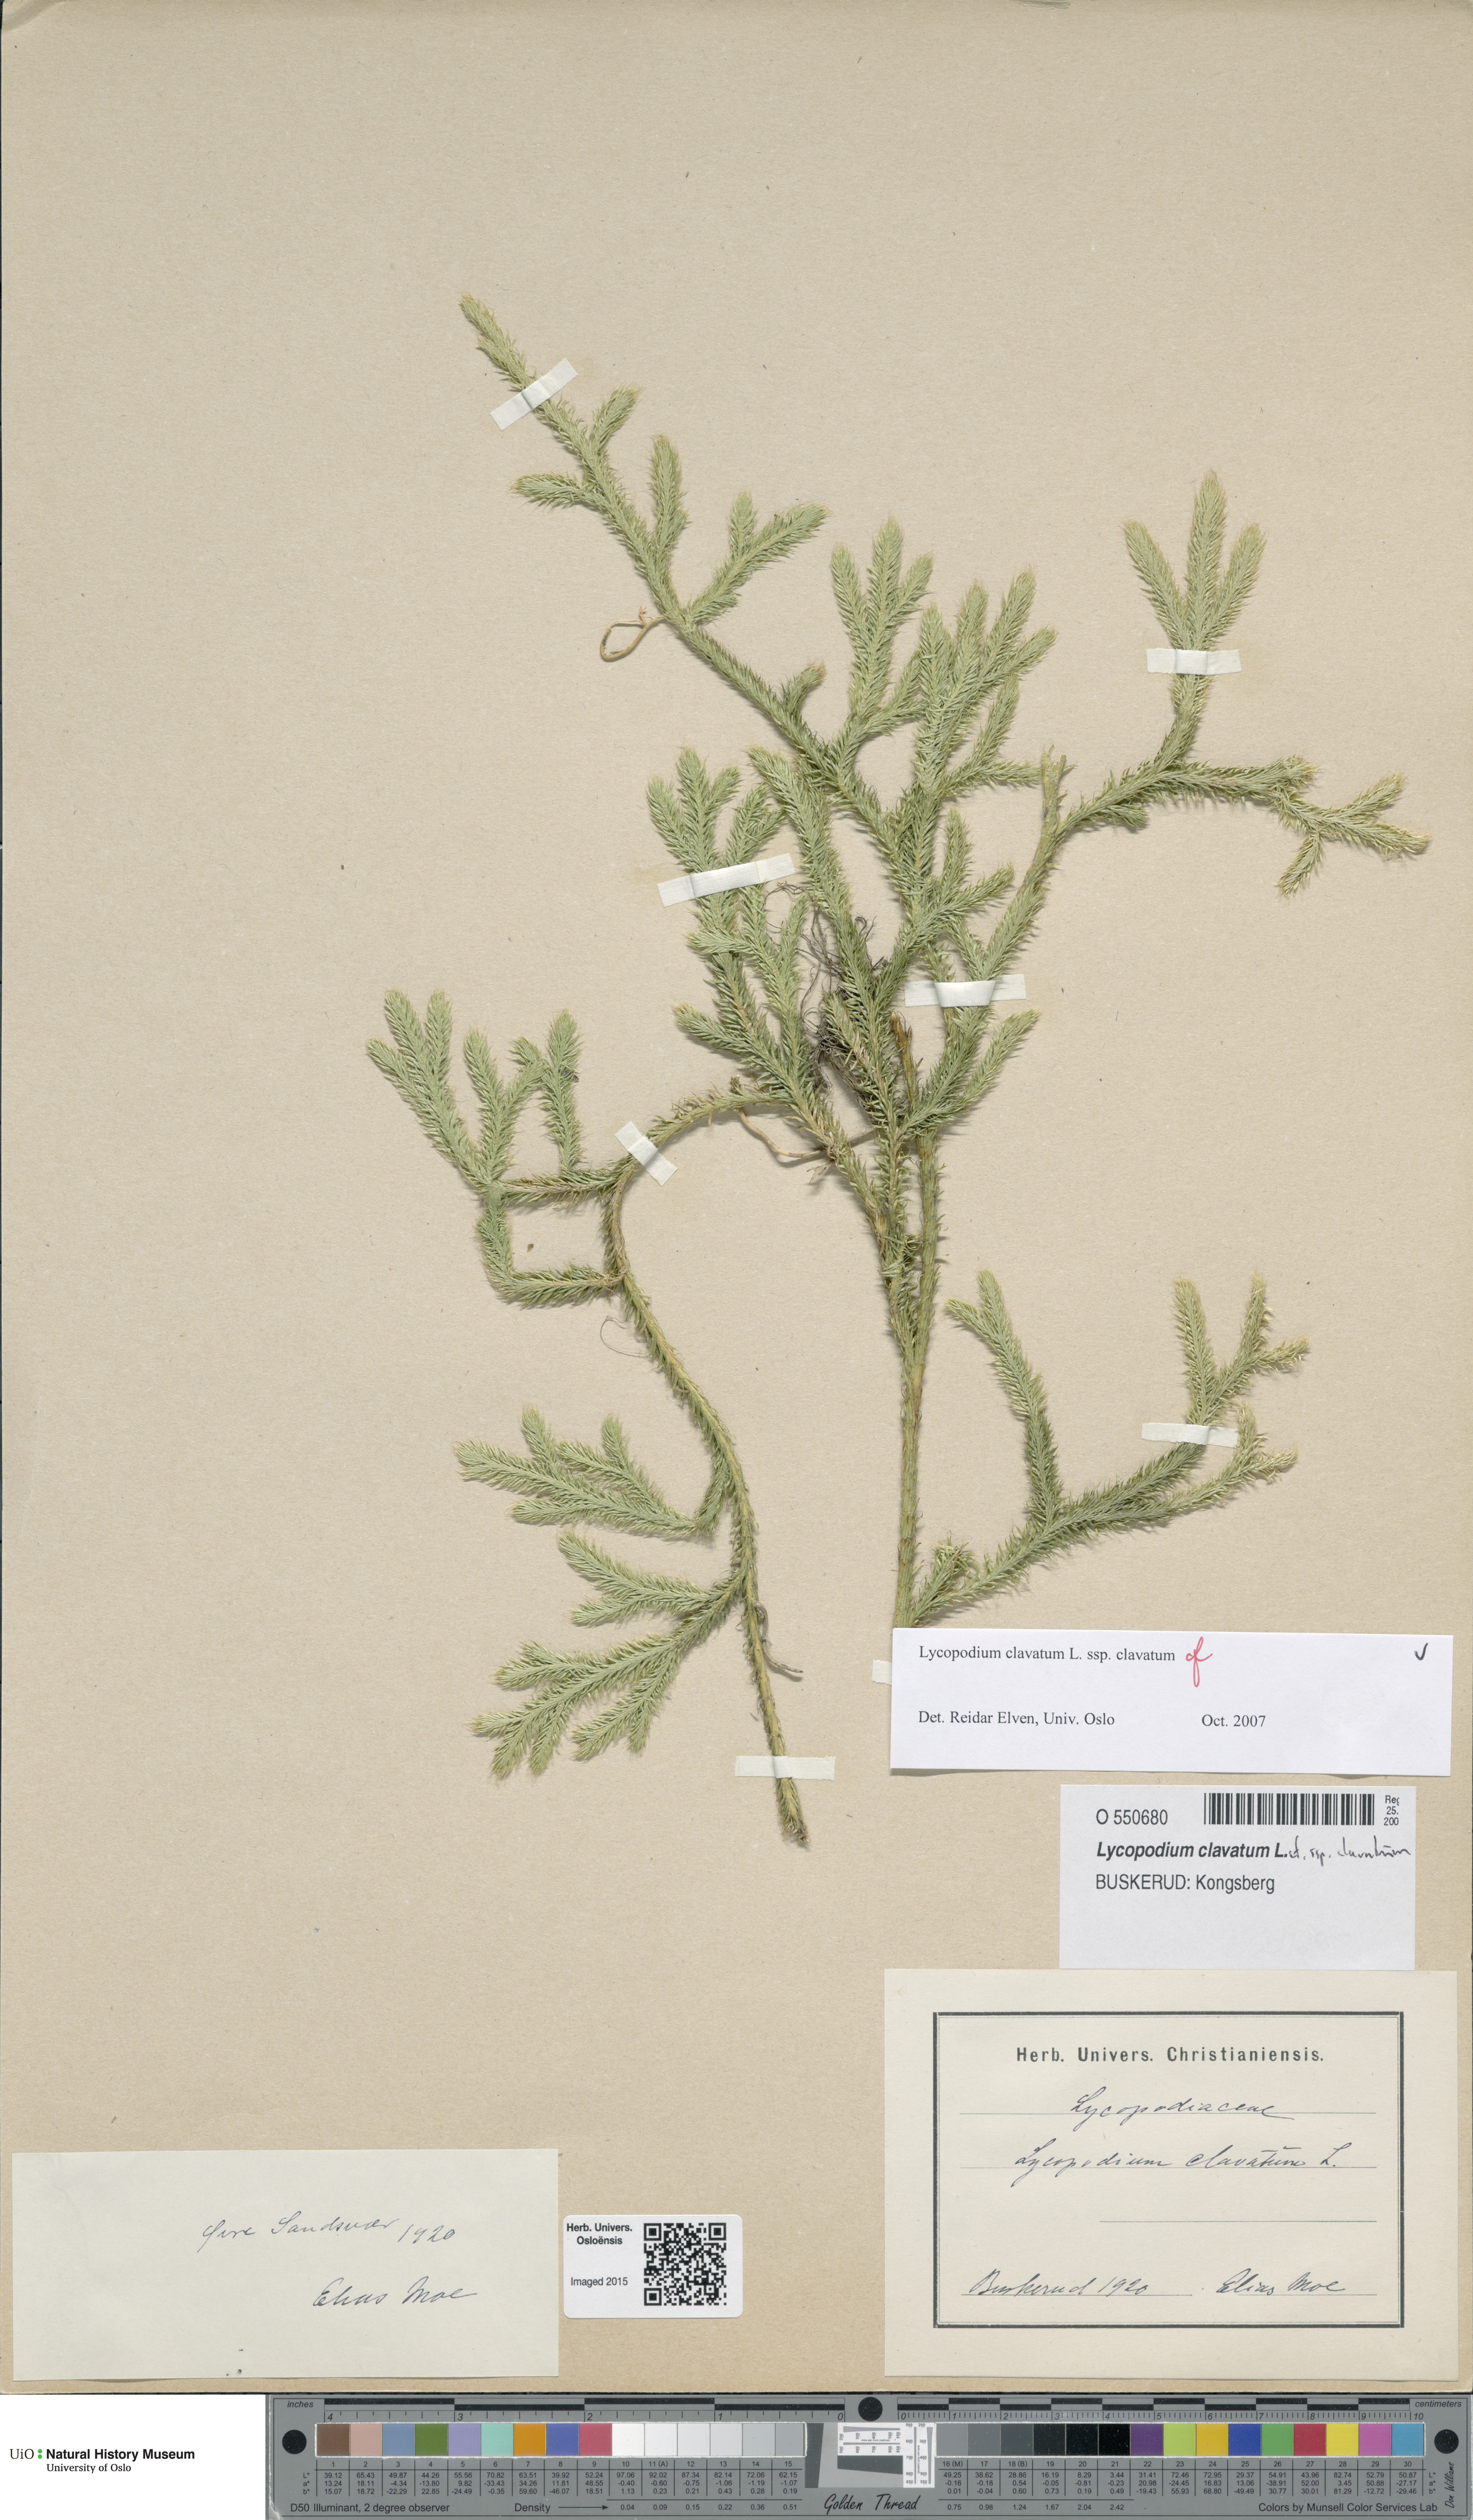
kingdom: Plantae
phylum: Tracheophyta
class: Lycopodiopsida
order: Lycopodiales
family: Lycopodiaceae
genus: Lycopodium
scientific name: Lycopodium clavatum
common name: Stag's-horn clubmoss
